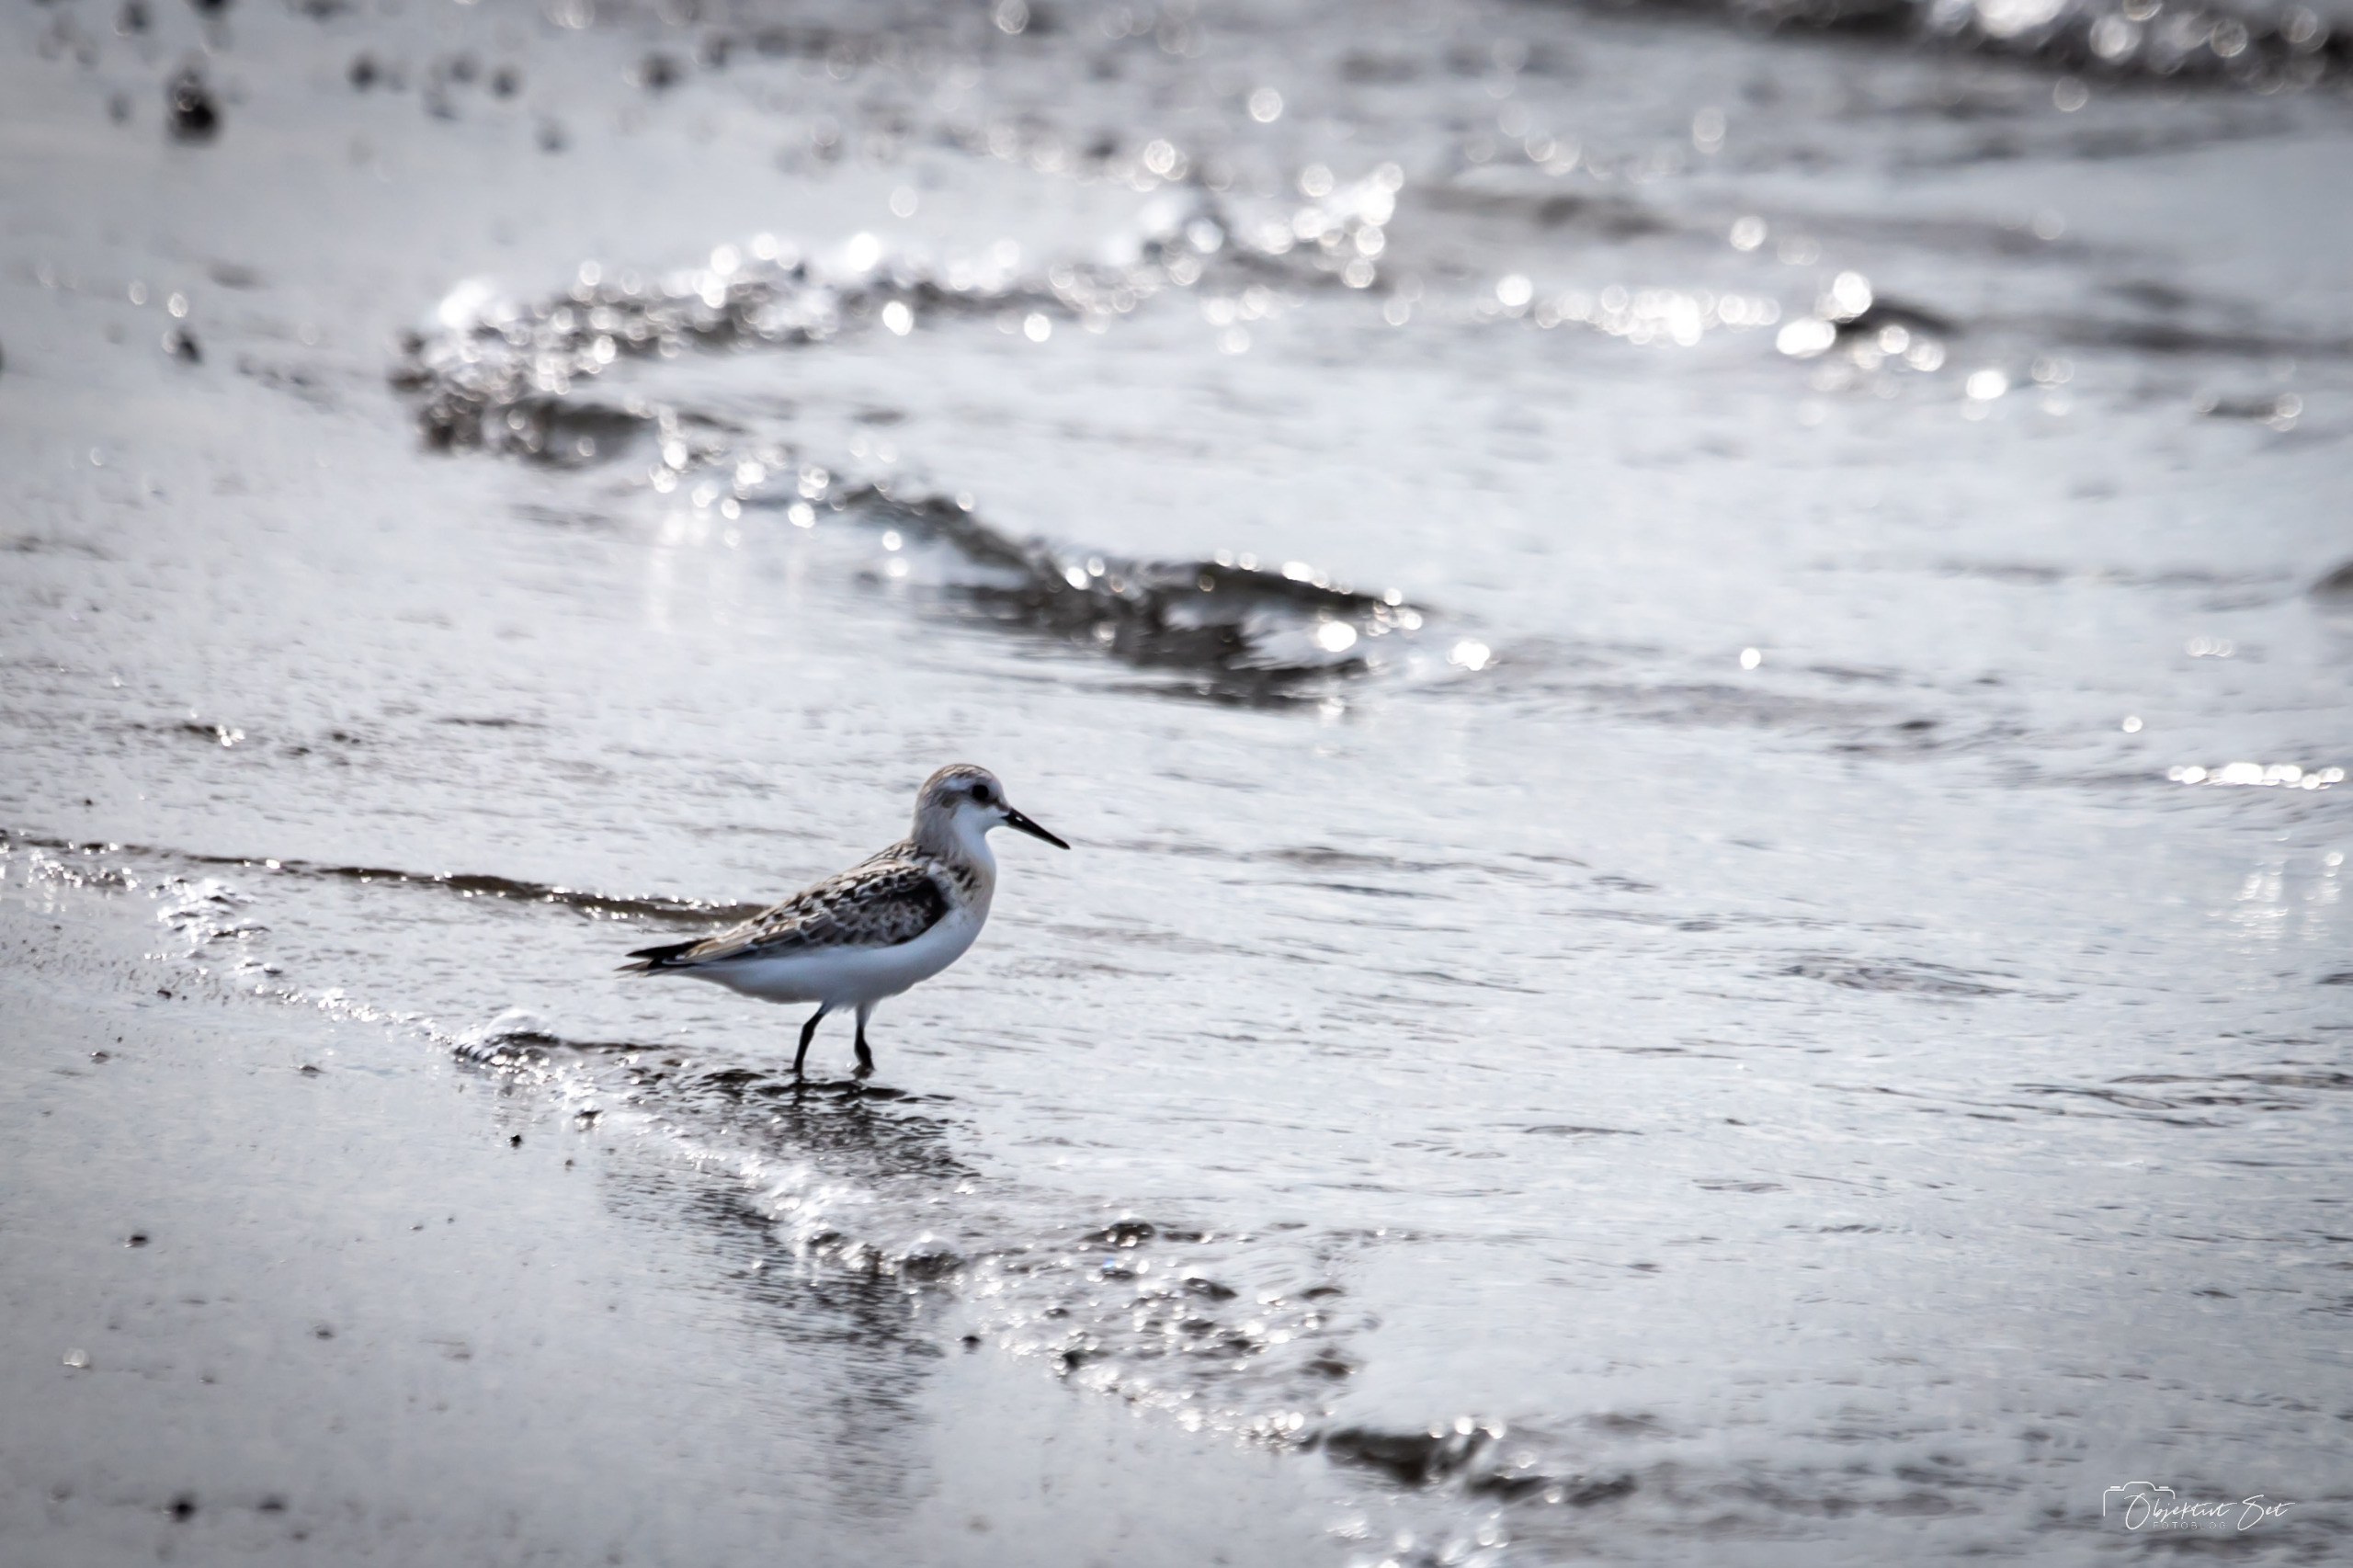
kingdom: Animalia
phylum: Chordata
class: Aves
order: Charadriiformes
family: Scolopacidae
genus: Calidris
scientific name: Calidris alba
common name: Sandløber
